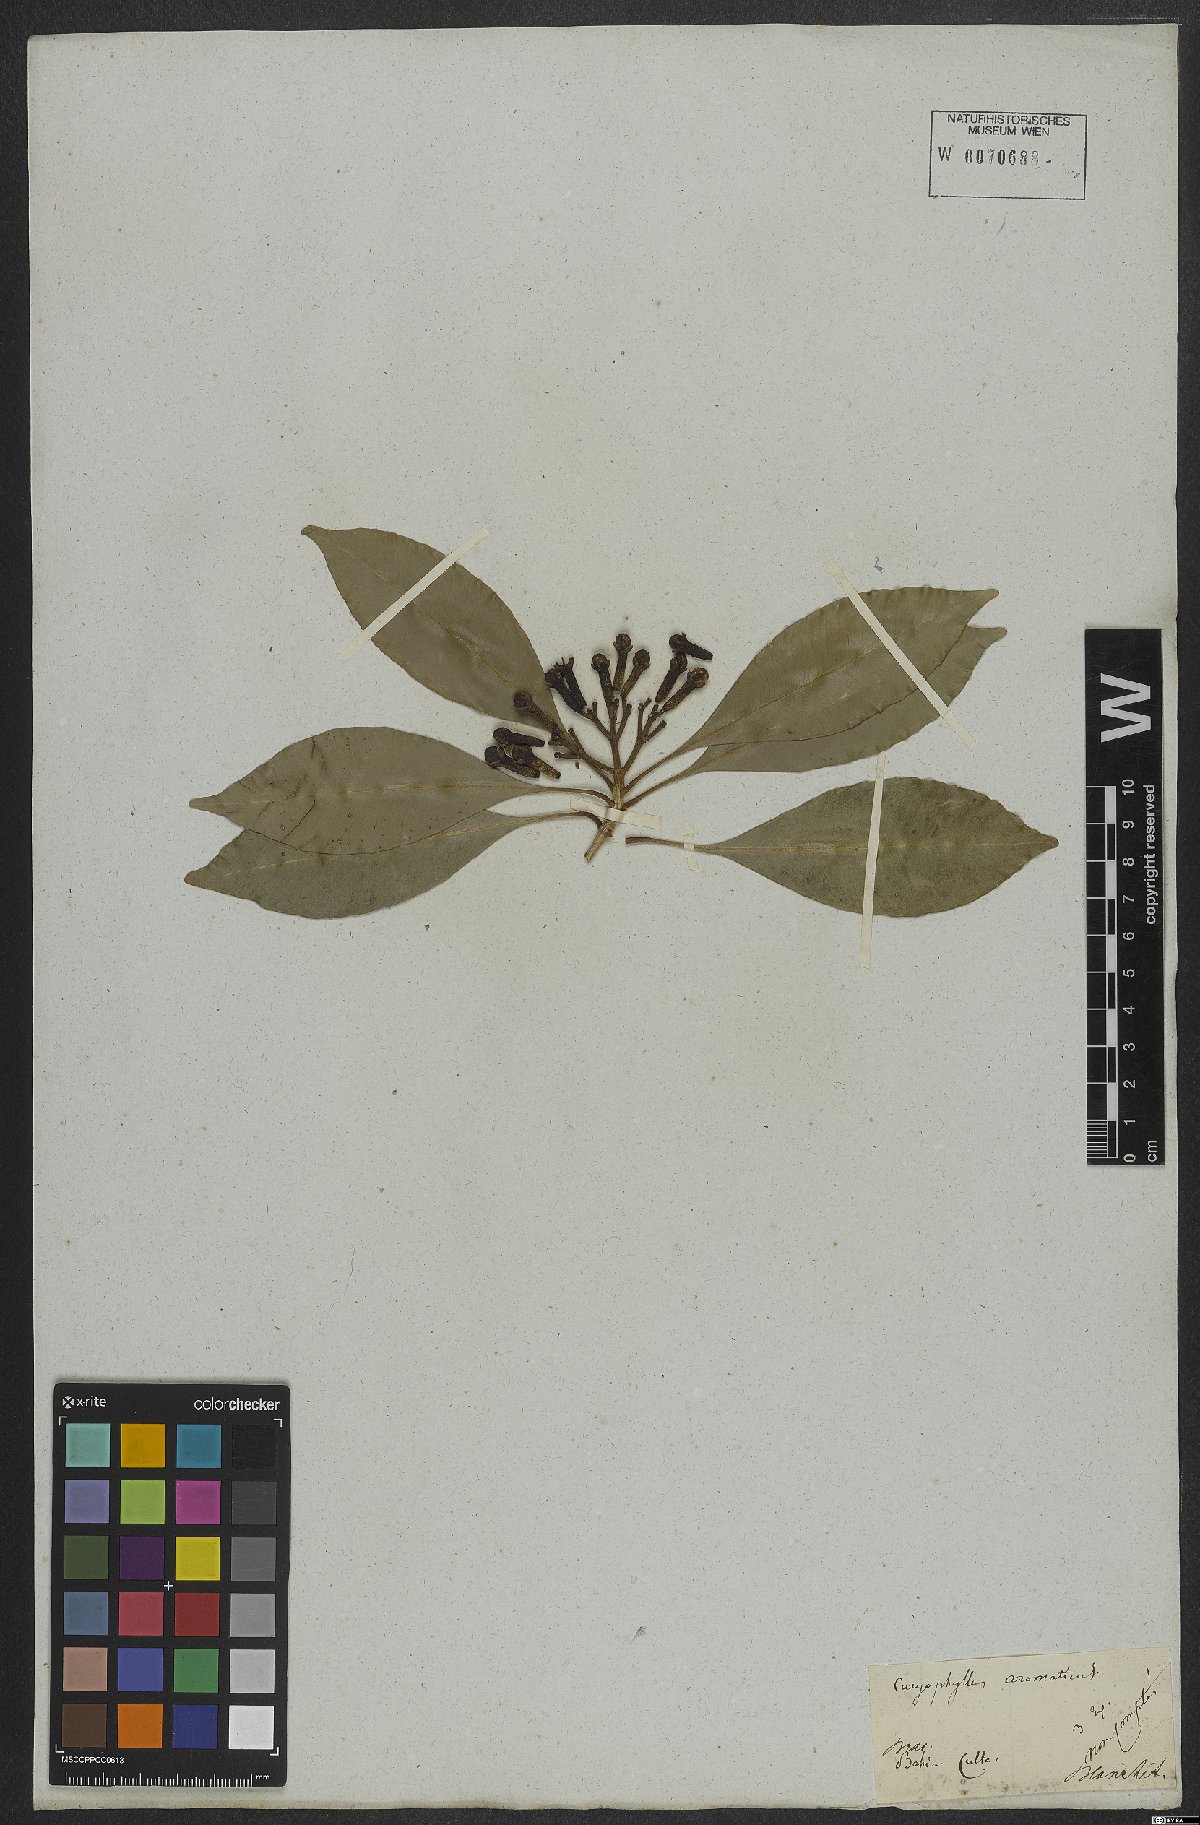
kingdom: Plantae
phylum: Tracheophyta
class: Magnoliopsida
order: Myrtales
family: Myrtaceae
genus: Syzygium
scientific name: Syzygium aromaticum
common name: Clove
